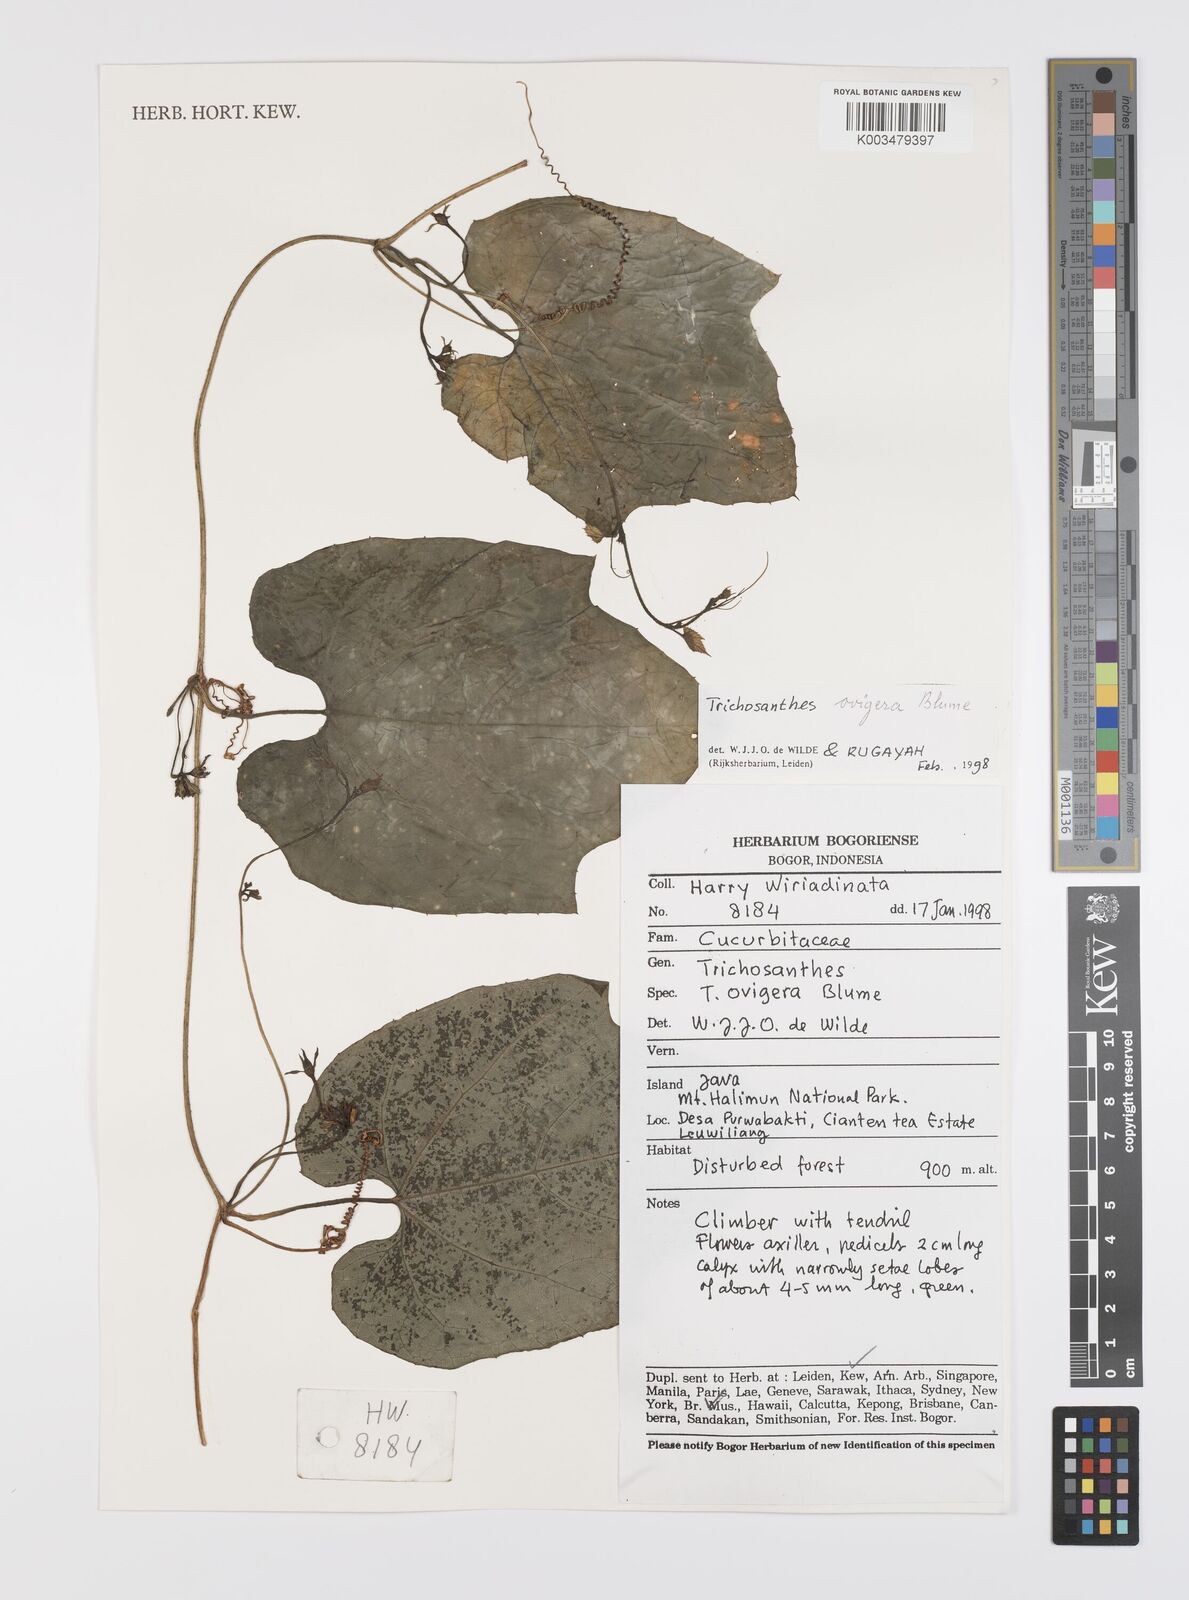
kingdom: Plantae
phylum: Tracheophyta
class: Magnoliopsida
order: Cucurbitales
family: Cucurbitaceae
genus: Trichosanthes
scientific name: Trichosanthes ovigera
